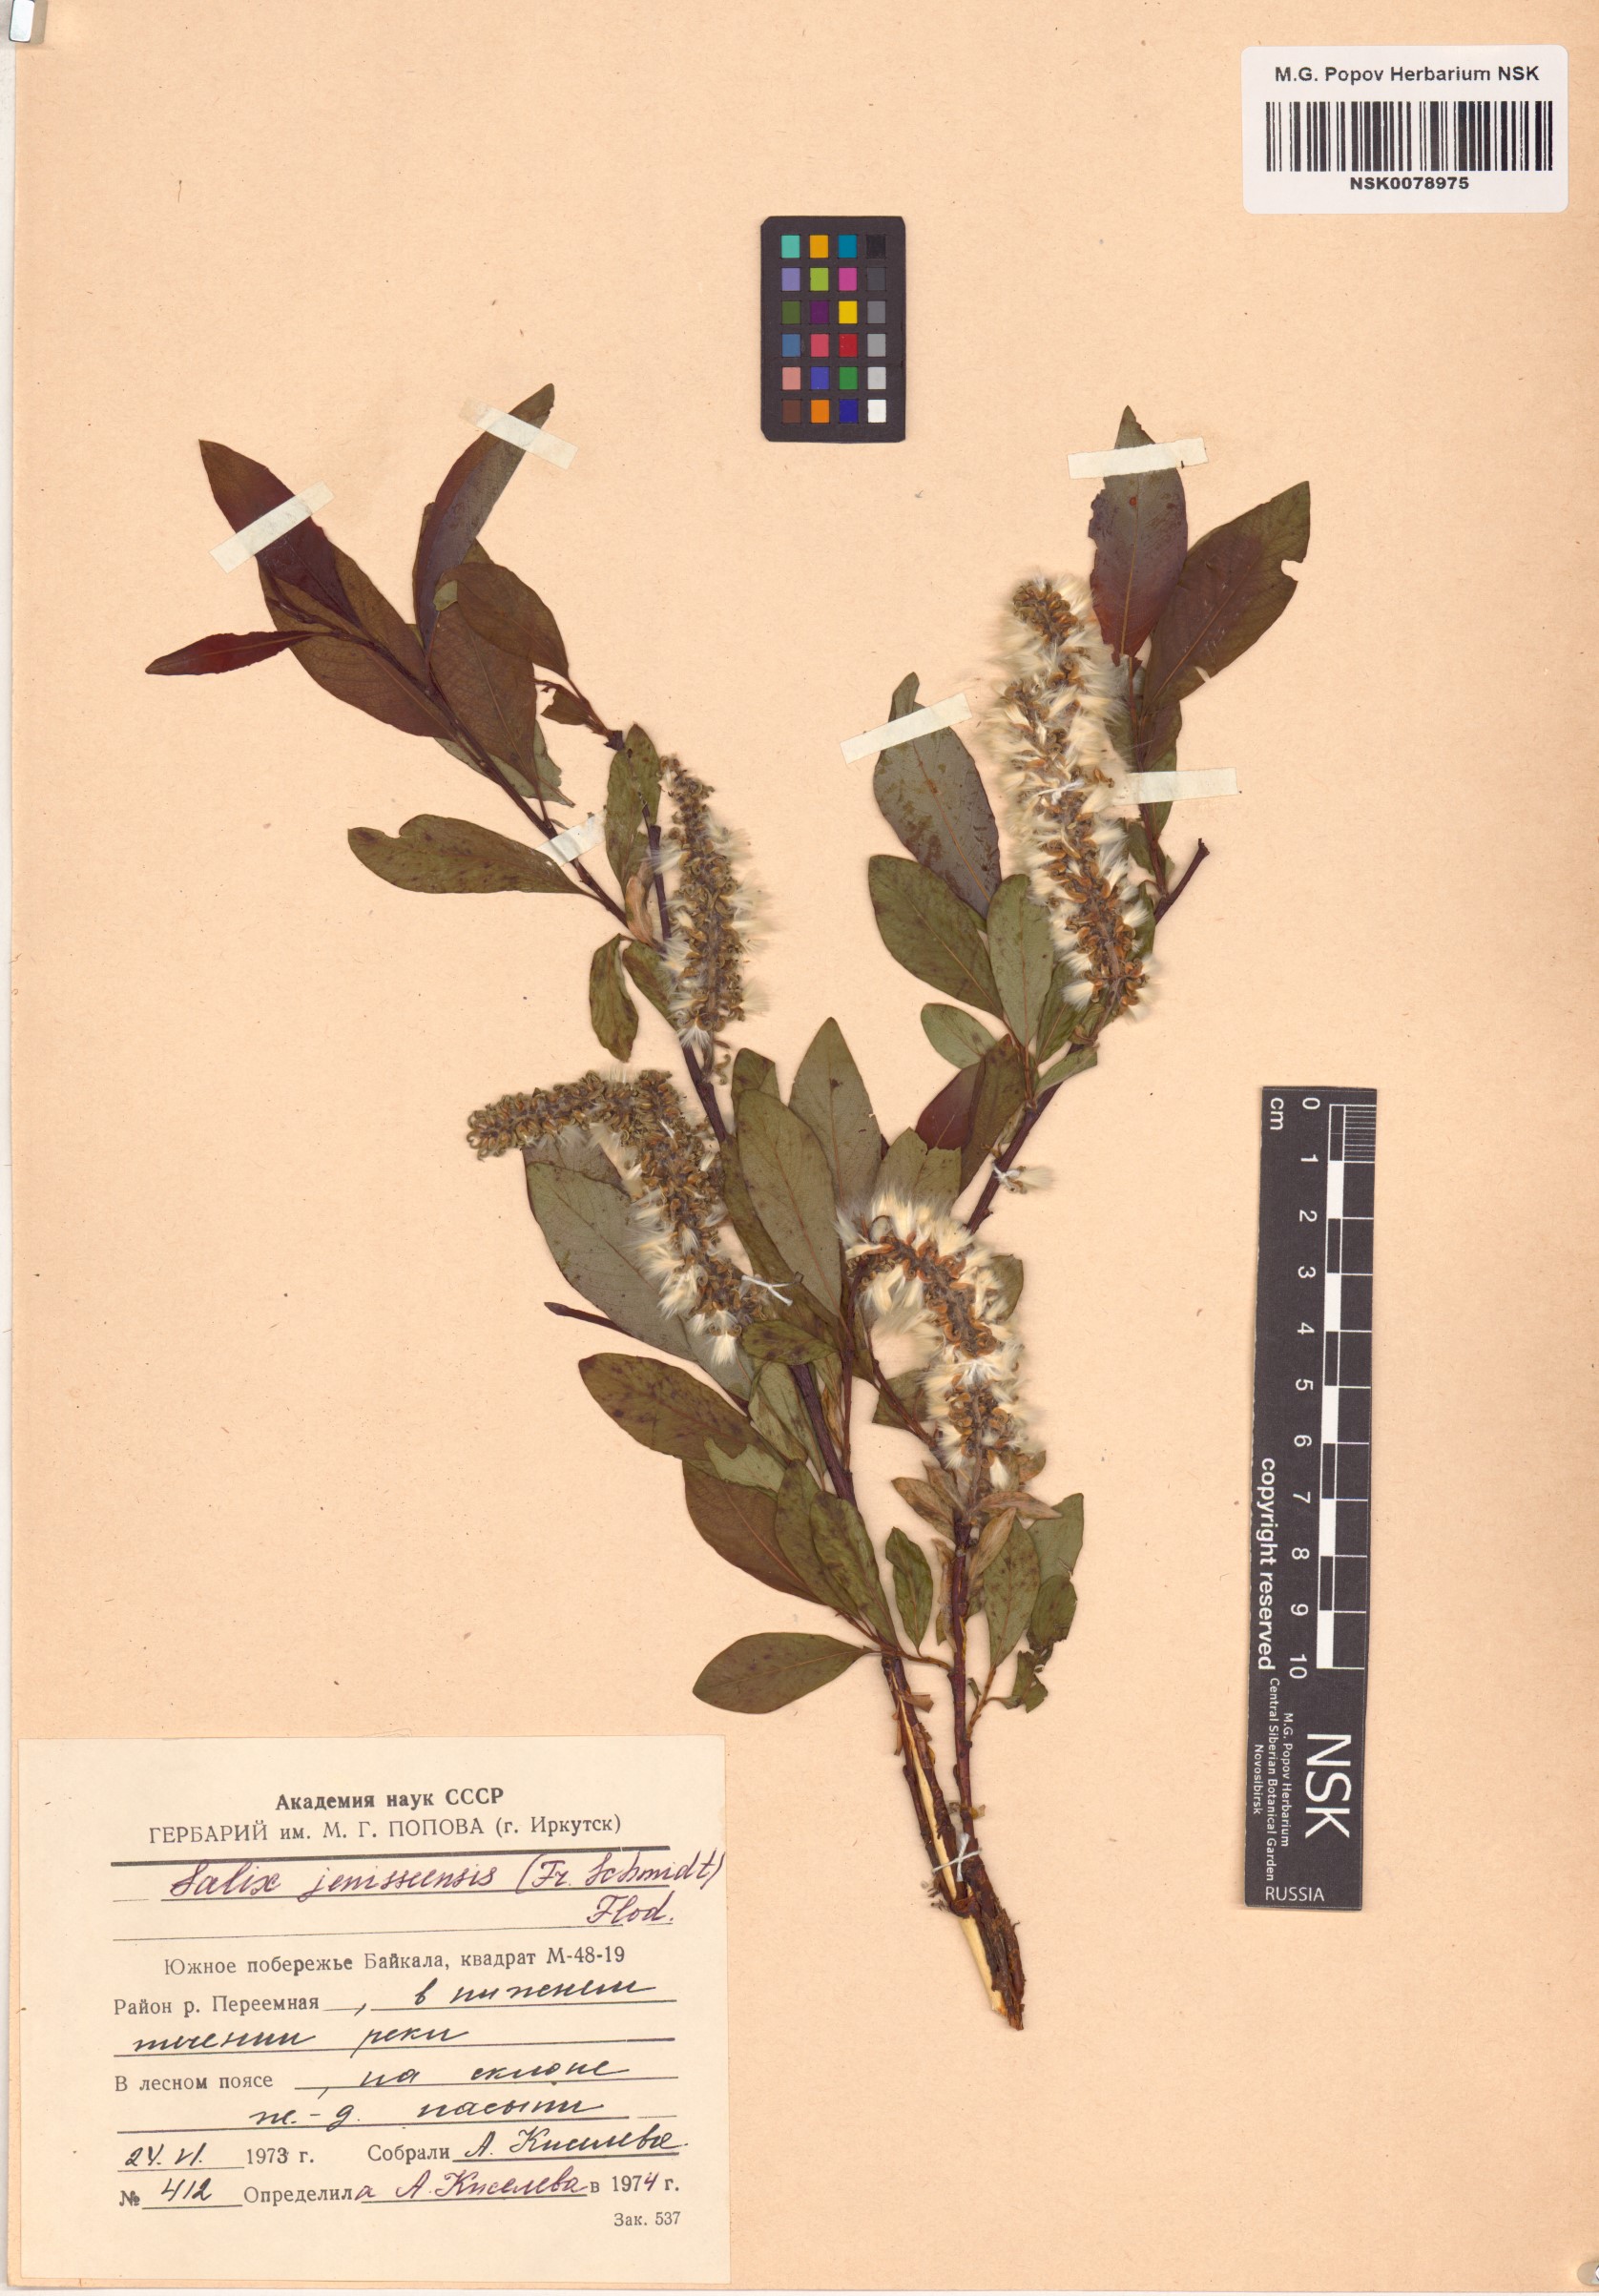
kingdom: Plantae
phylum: Tracheophyta
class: Magnoliopsida
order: Malpighiales
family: Salicaceae
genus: Salix
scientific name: Salix jenisseensis
